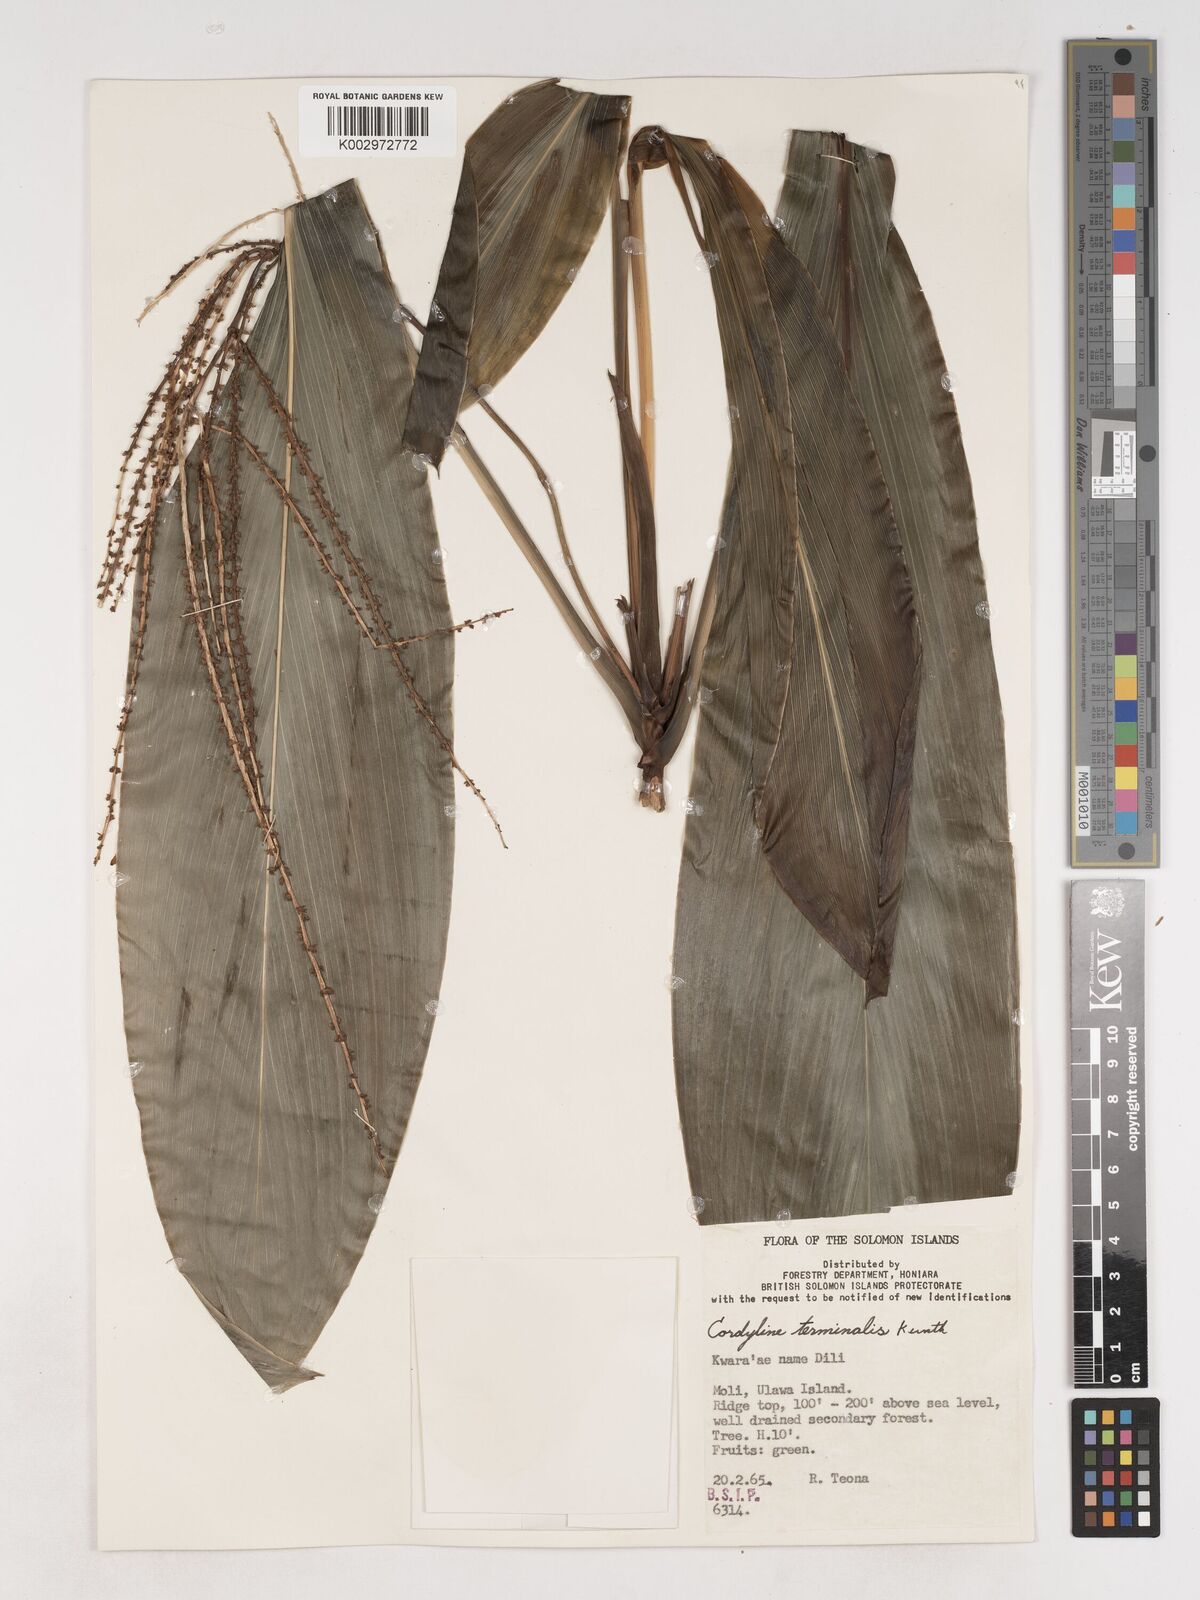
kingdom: Plantae
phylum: Tracheophyta
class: Liliopsida
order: Asparagales
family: Asparagaceae
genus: Cordyline
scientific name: Cordyline fruticosa
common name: Good-luck-plant
